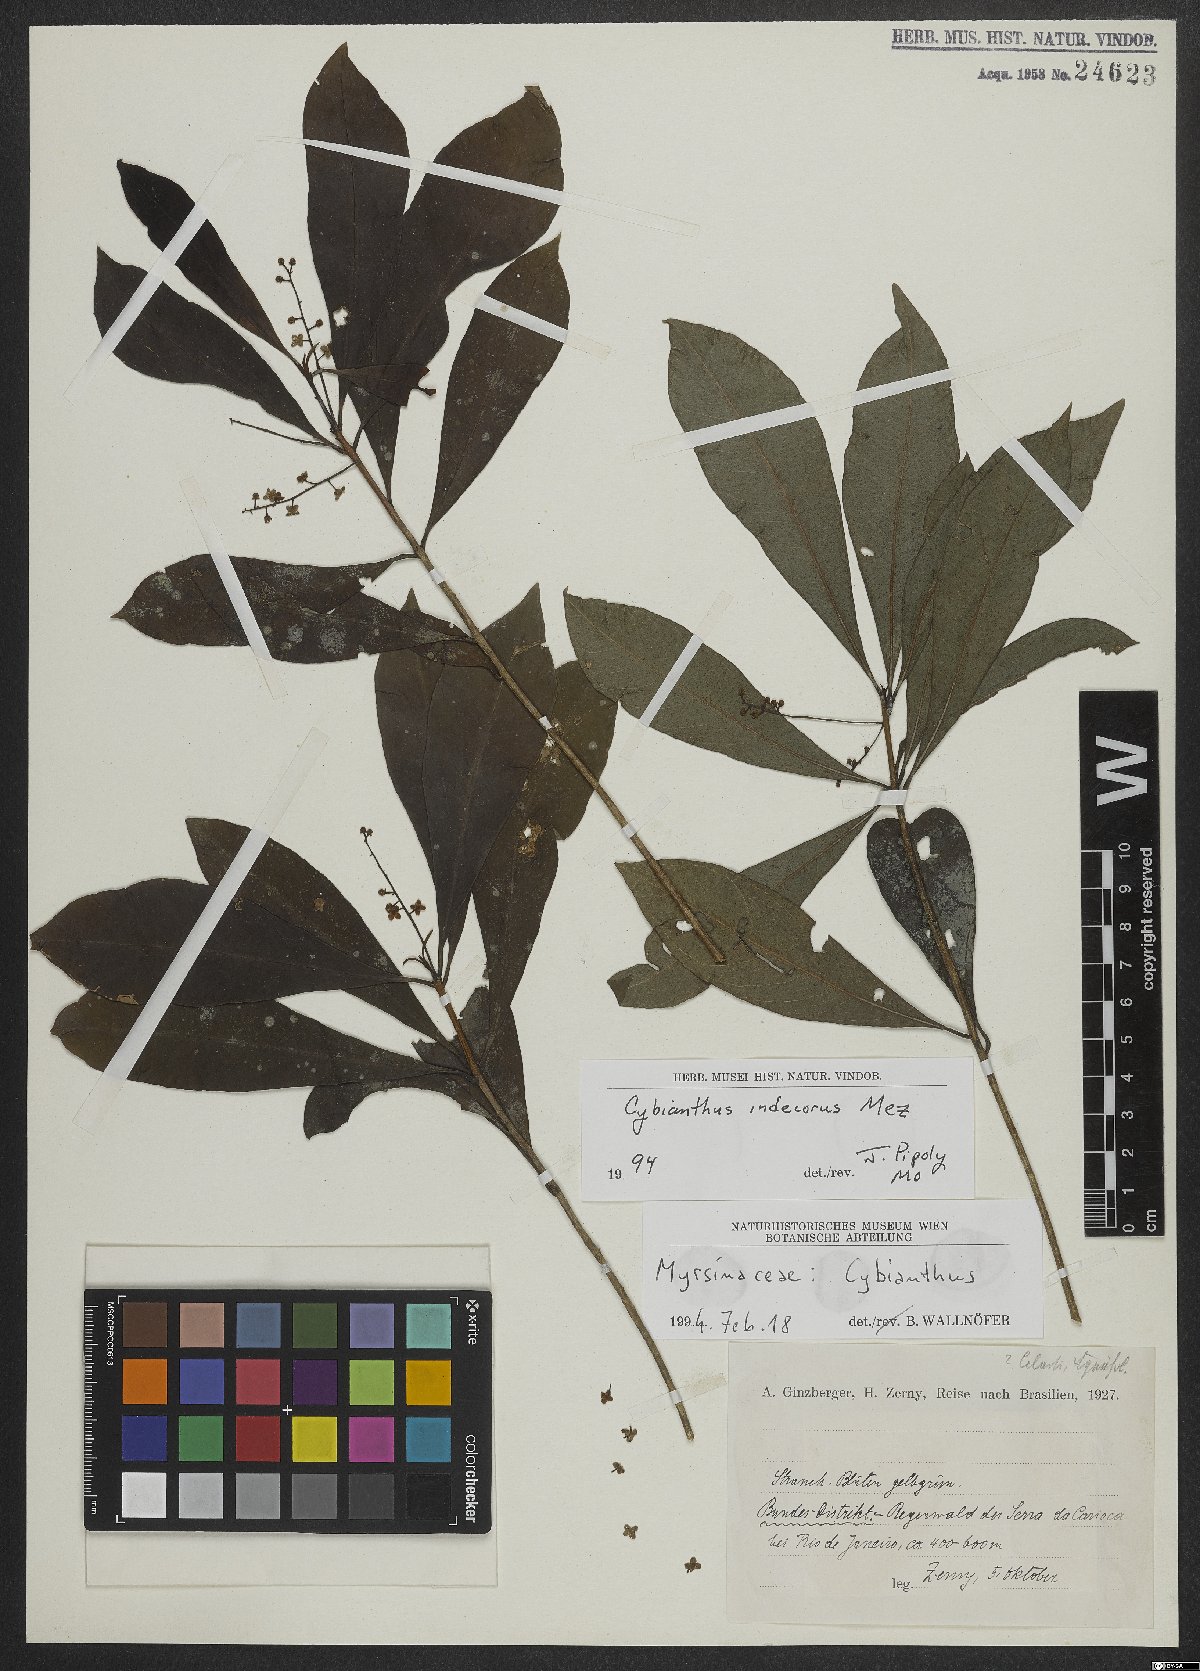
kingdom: Plantae
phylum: Tracheophyta
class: Magnoliopsida
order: Ericales
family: Primulaceae
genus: Cybianthus
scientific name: Cybianthus indecorus
